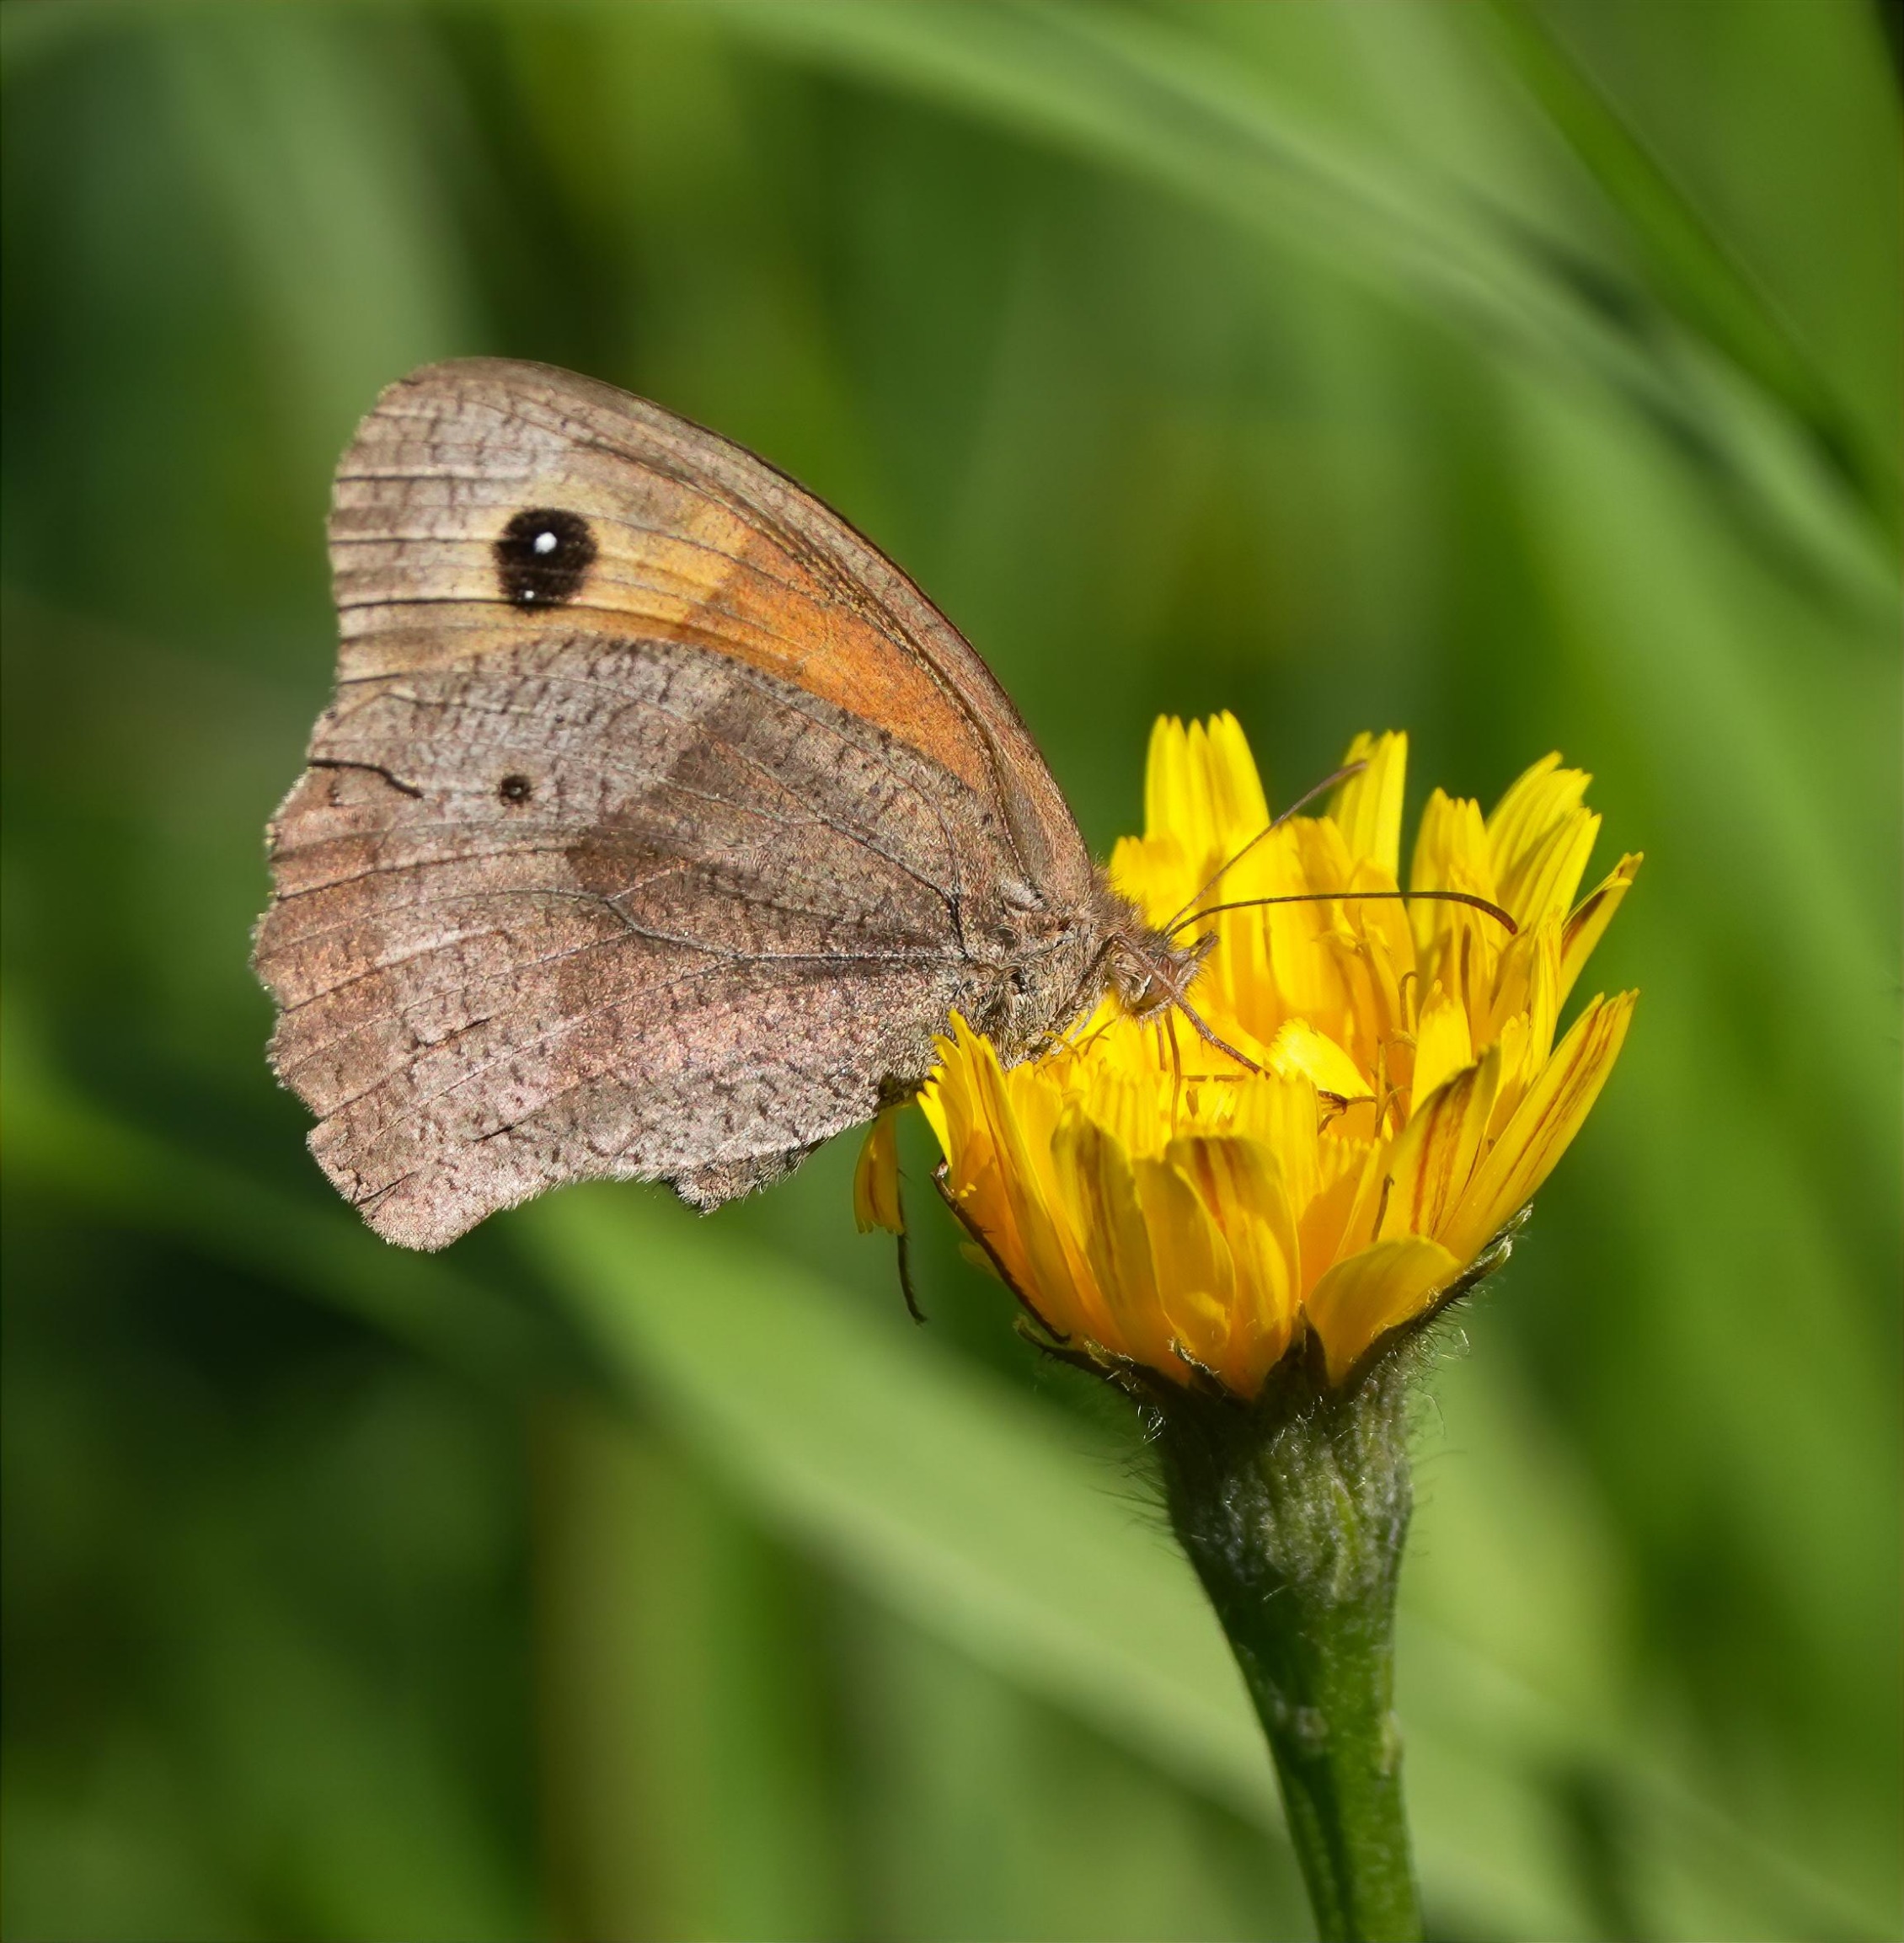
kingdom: Animalia
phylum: Arthropoda
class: Insecta
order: Lepidoptera
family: Nymphalidae
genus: Maniola
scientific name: Maniola jurtina
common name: Græsrandøje
